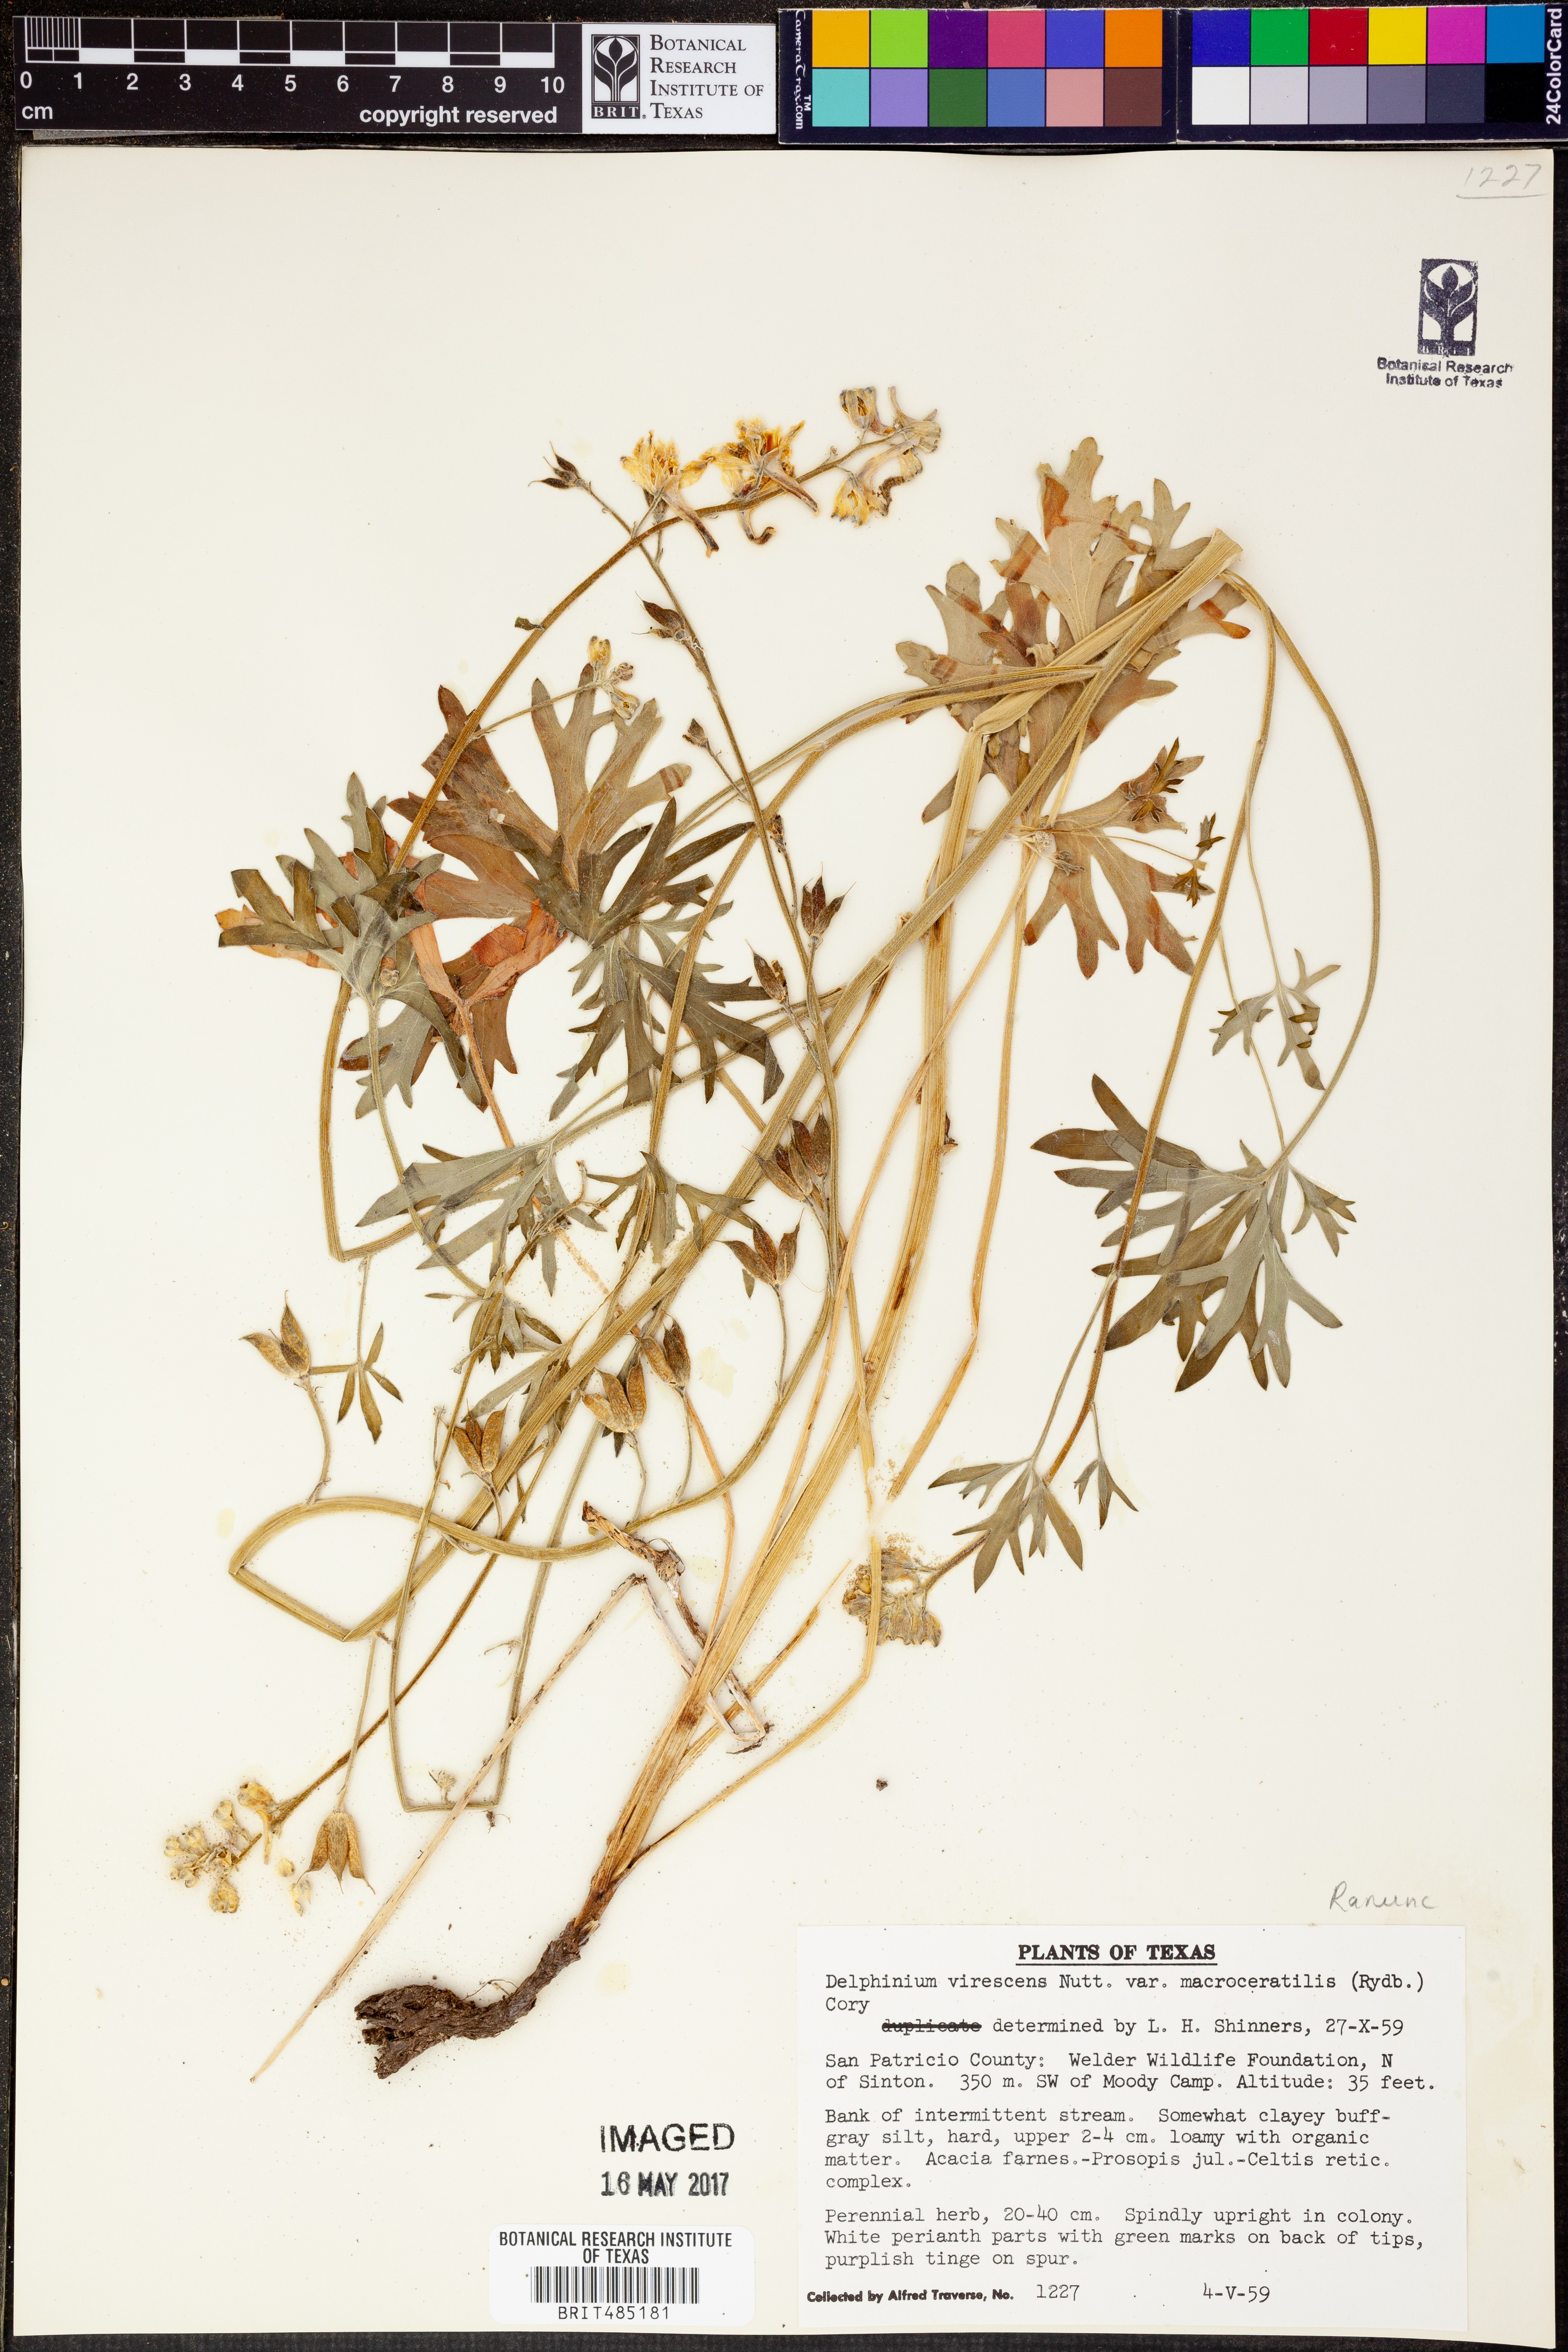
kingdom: Plantae
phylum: Tracheophyta
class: Magnoliopsida
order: Ranunculales
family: Ranunculaceae
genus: Delphinium
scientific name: Delphinium carolinianum
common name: Carolina larkspur
